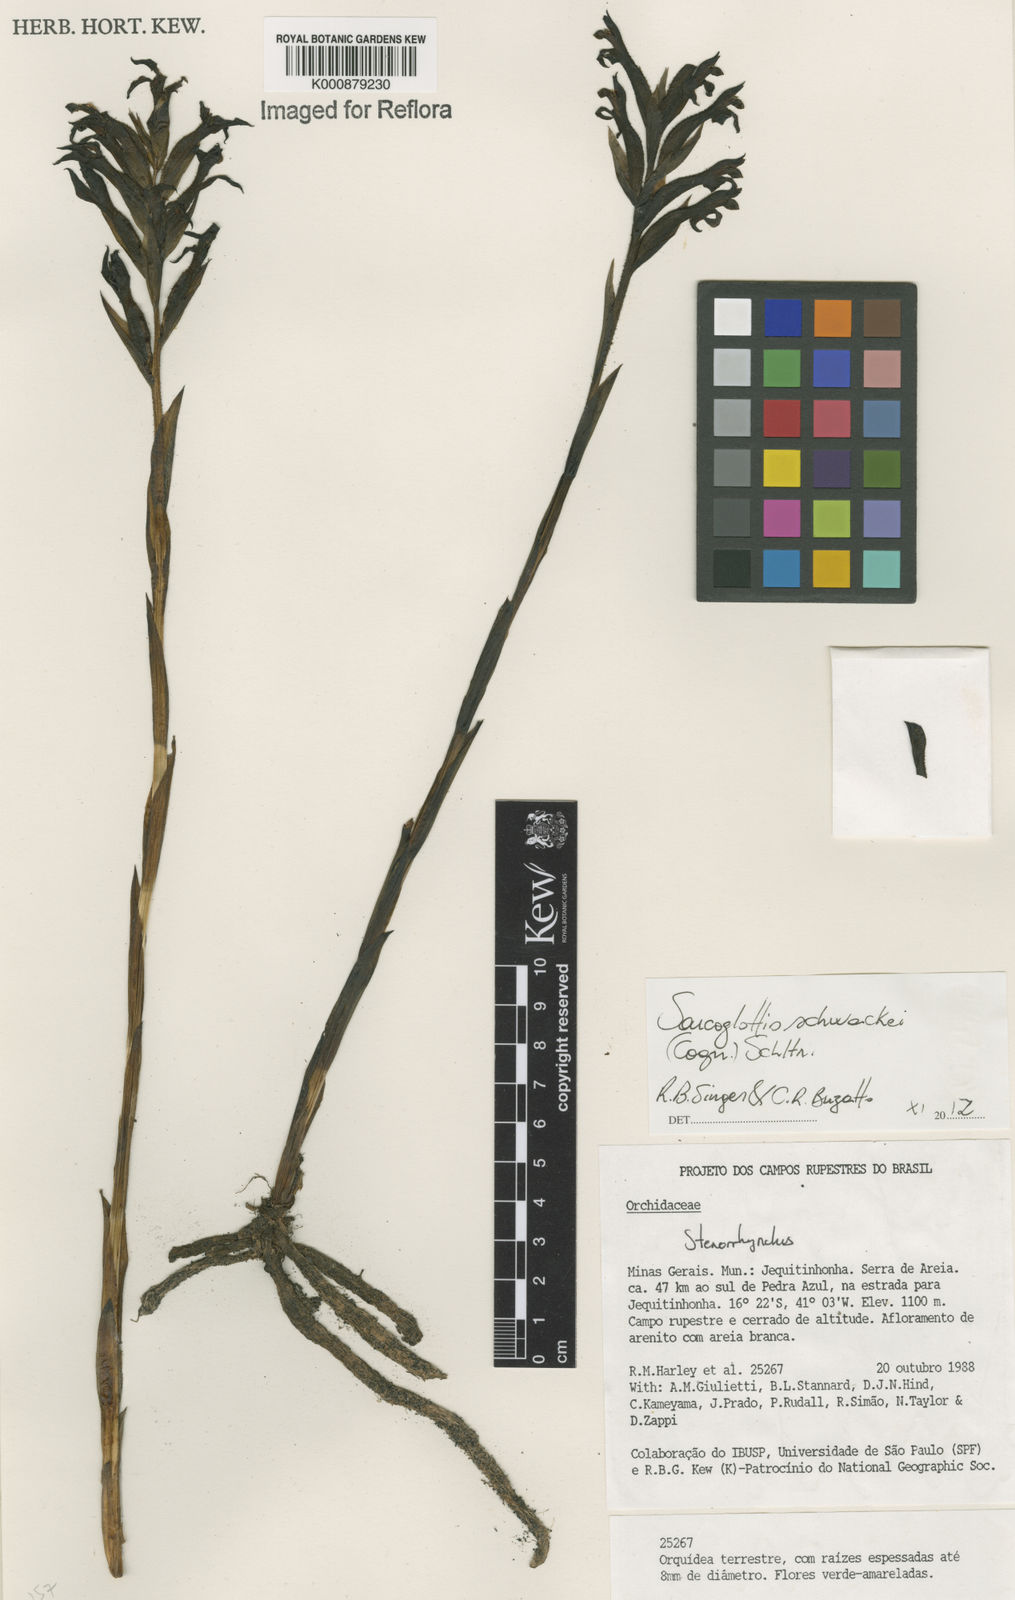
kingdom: Plantae
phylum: Tracheophyta
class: Liliopsida
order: Asparagales
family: Orchidaceae
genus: Sarcoglottis
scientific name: Sarcoglottis schwackei
